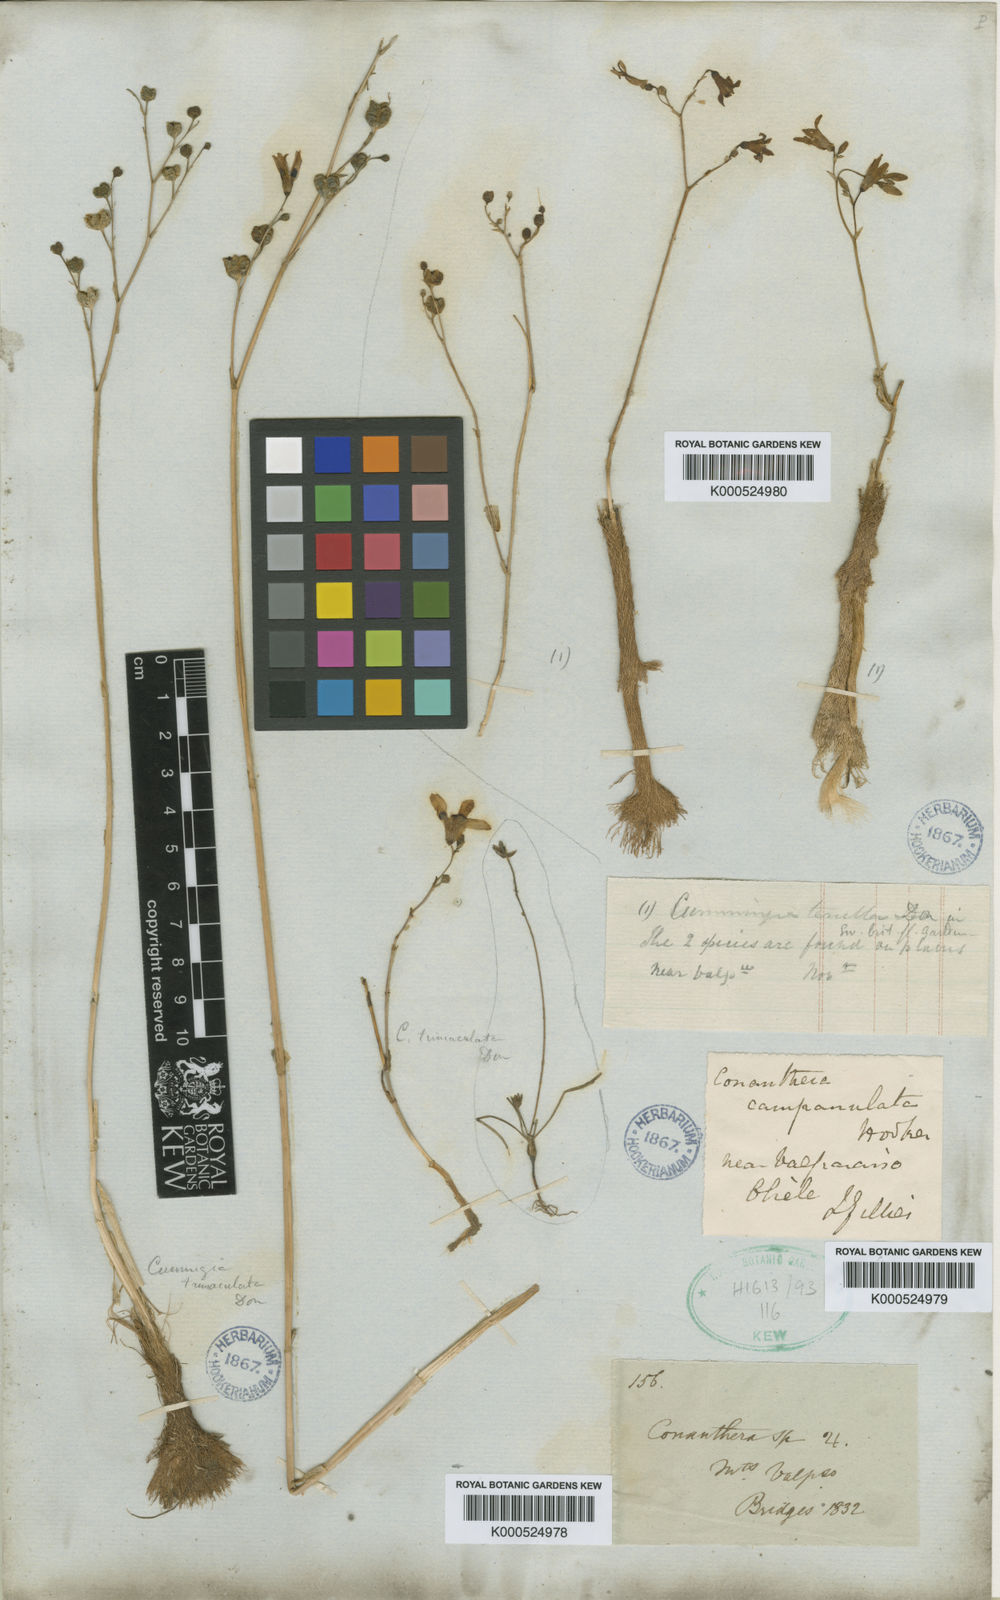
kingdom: Plantae
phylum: Tracheophyta
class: Liliopsida
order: Asparagales
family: Tecophilaeaceae
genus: Conanthera
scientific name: Conanthera campanulata
